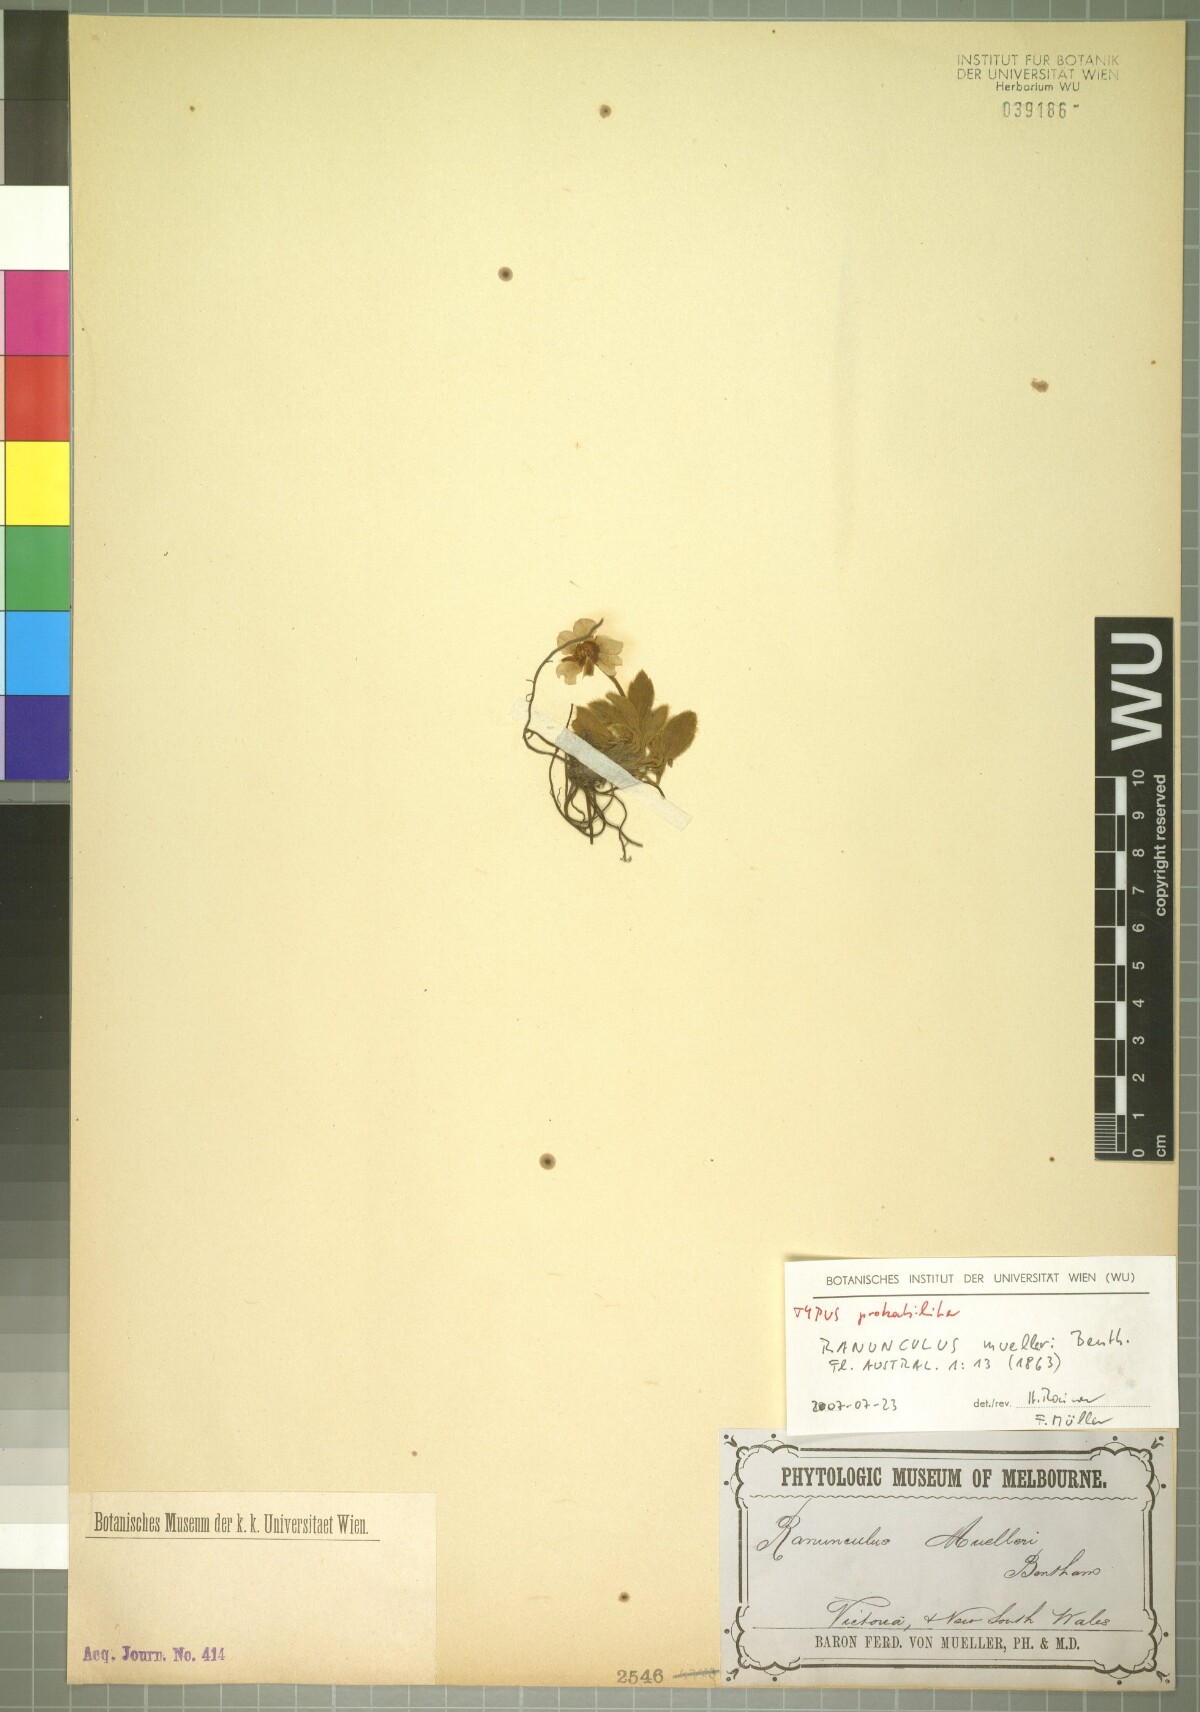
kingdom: Plantae
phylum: Tracheophyta
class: Magnoliopsida
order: Ranunculales
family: Ranunculaceae
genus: Ranunculus
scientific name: Ranunculus muelleri
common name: Felted buttercup
